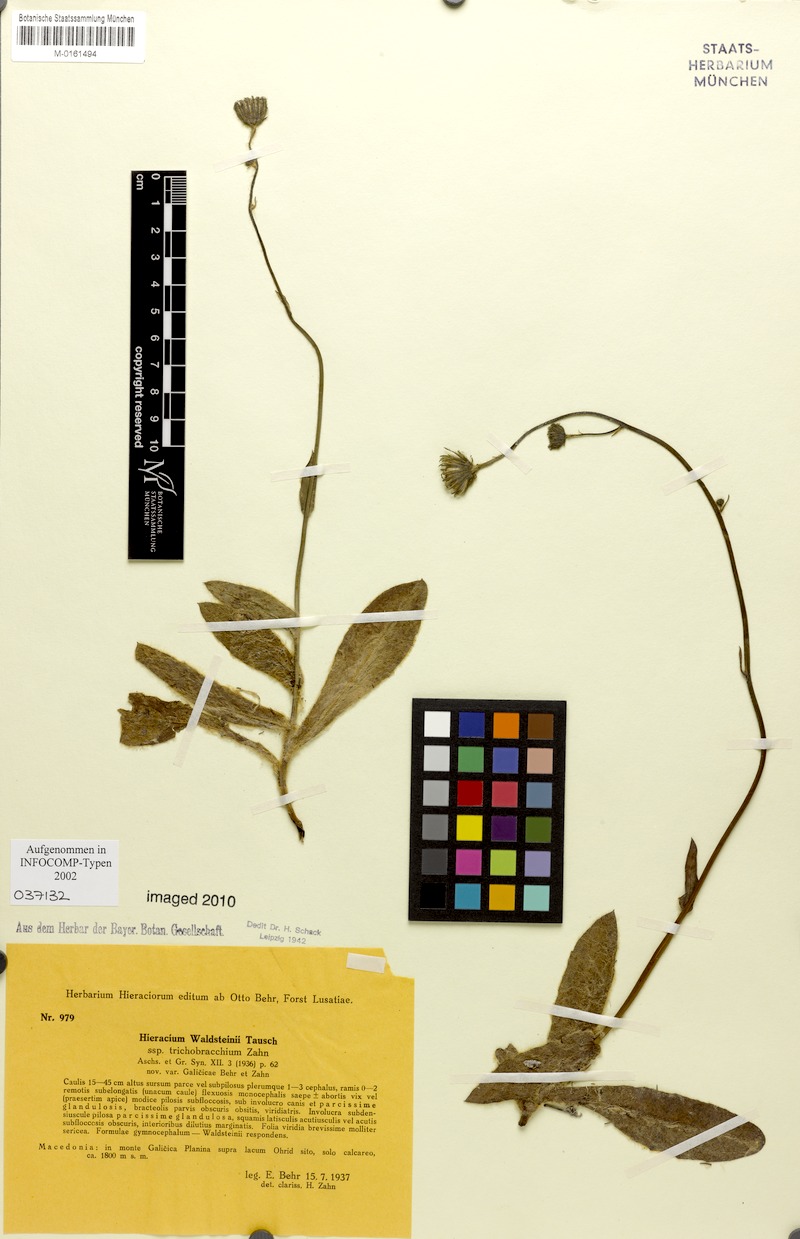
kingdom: Plantae
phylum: Tracheophyta
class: Magnoliopsida
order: Asterales
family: Asteraceae
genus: Hieracium
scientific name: Hieracium waldsteinii
